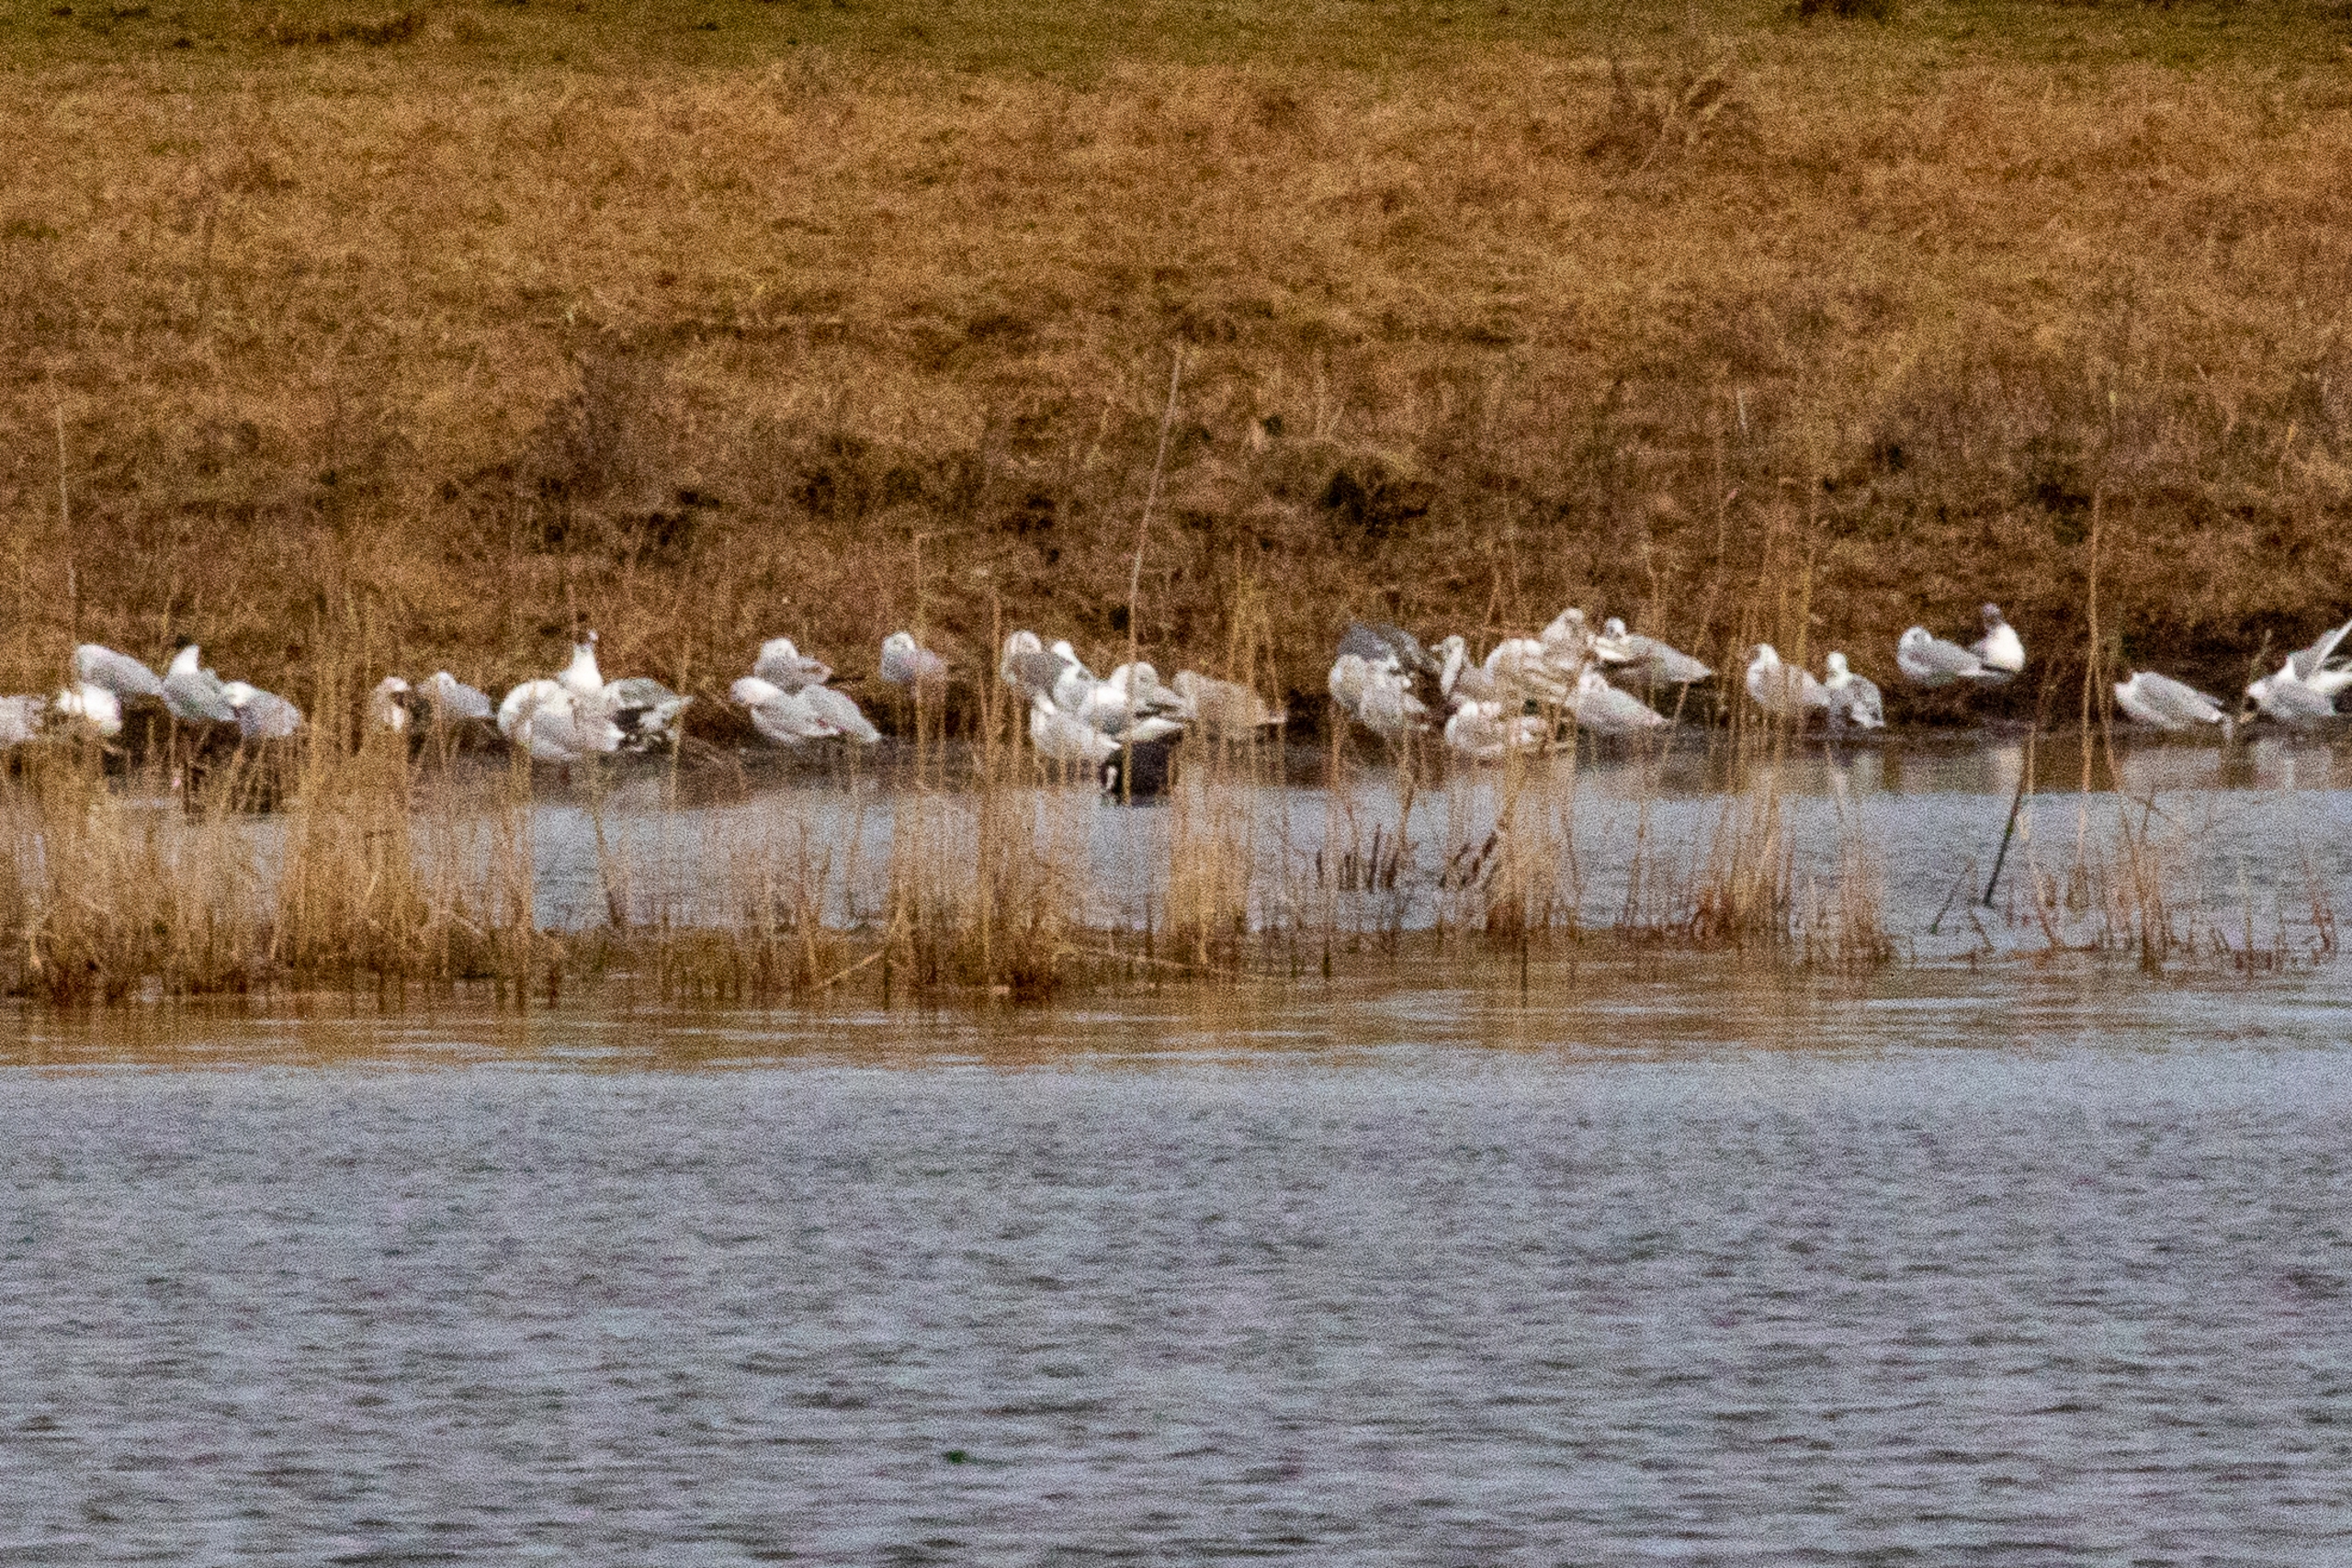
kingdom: Animalia
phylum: Chordata
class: Aves
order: Charadriiformes
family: Laridae
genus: Chroicocephalus
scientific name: Chroicocephalus ridibundus
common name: Hættemåge
